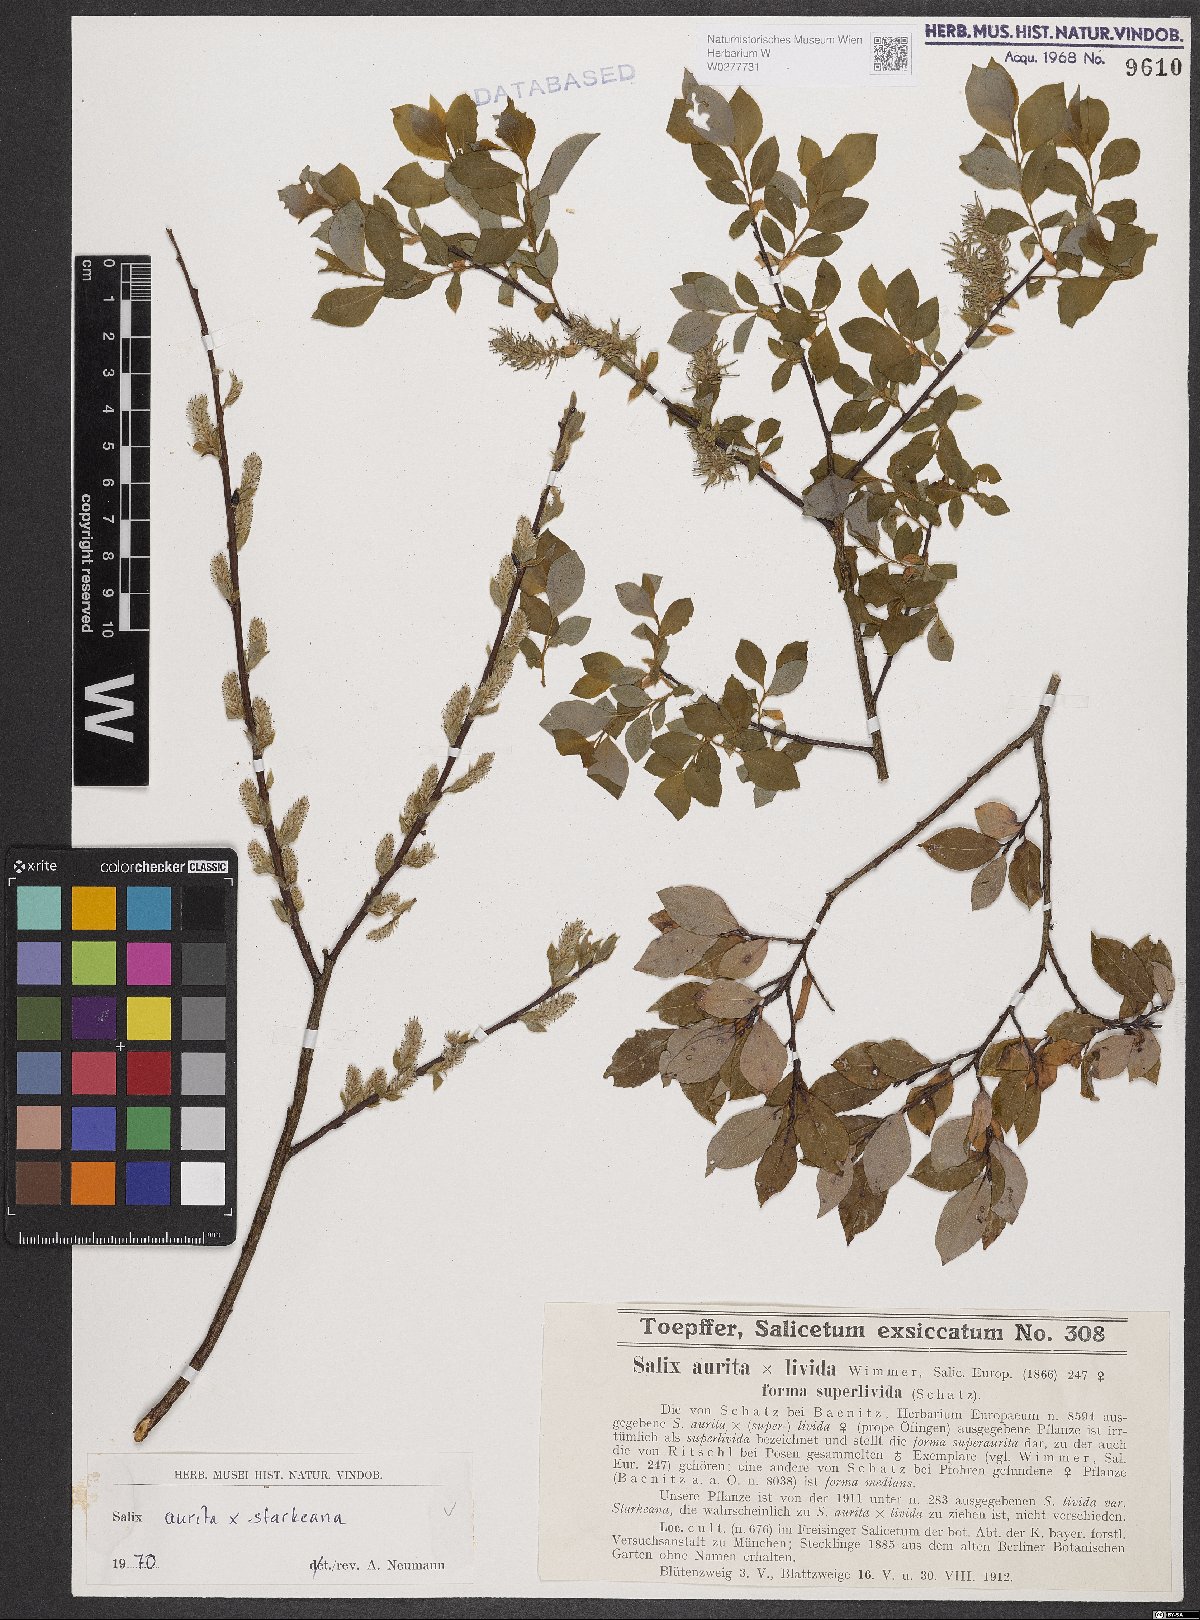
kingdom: Plantae
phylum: Tracheophyta
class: Magnoliopsida
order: Malpighiales
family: Salicaceae
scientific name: Salicaceae
